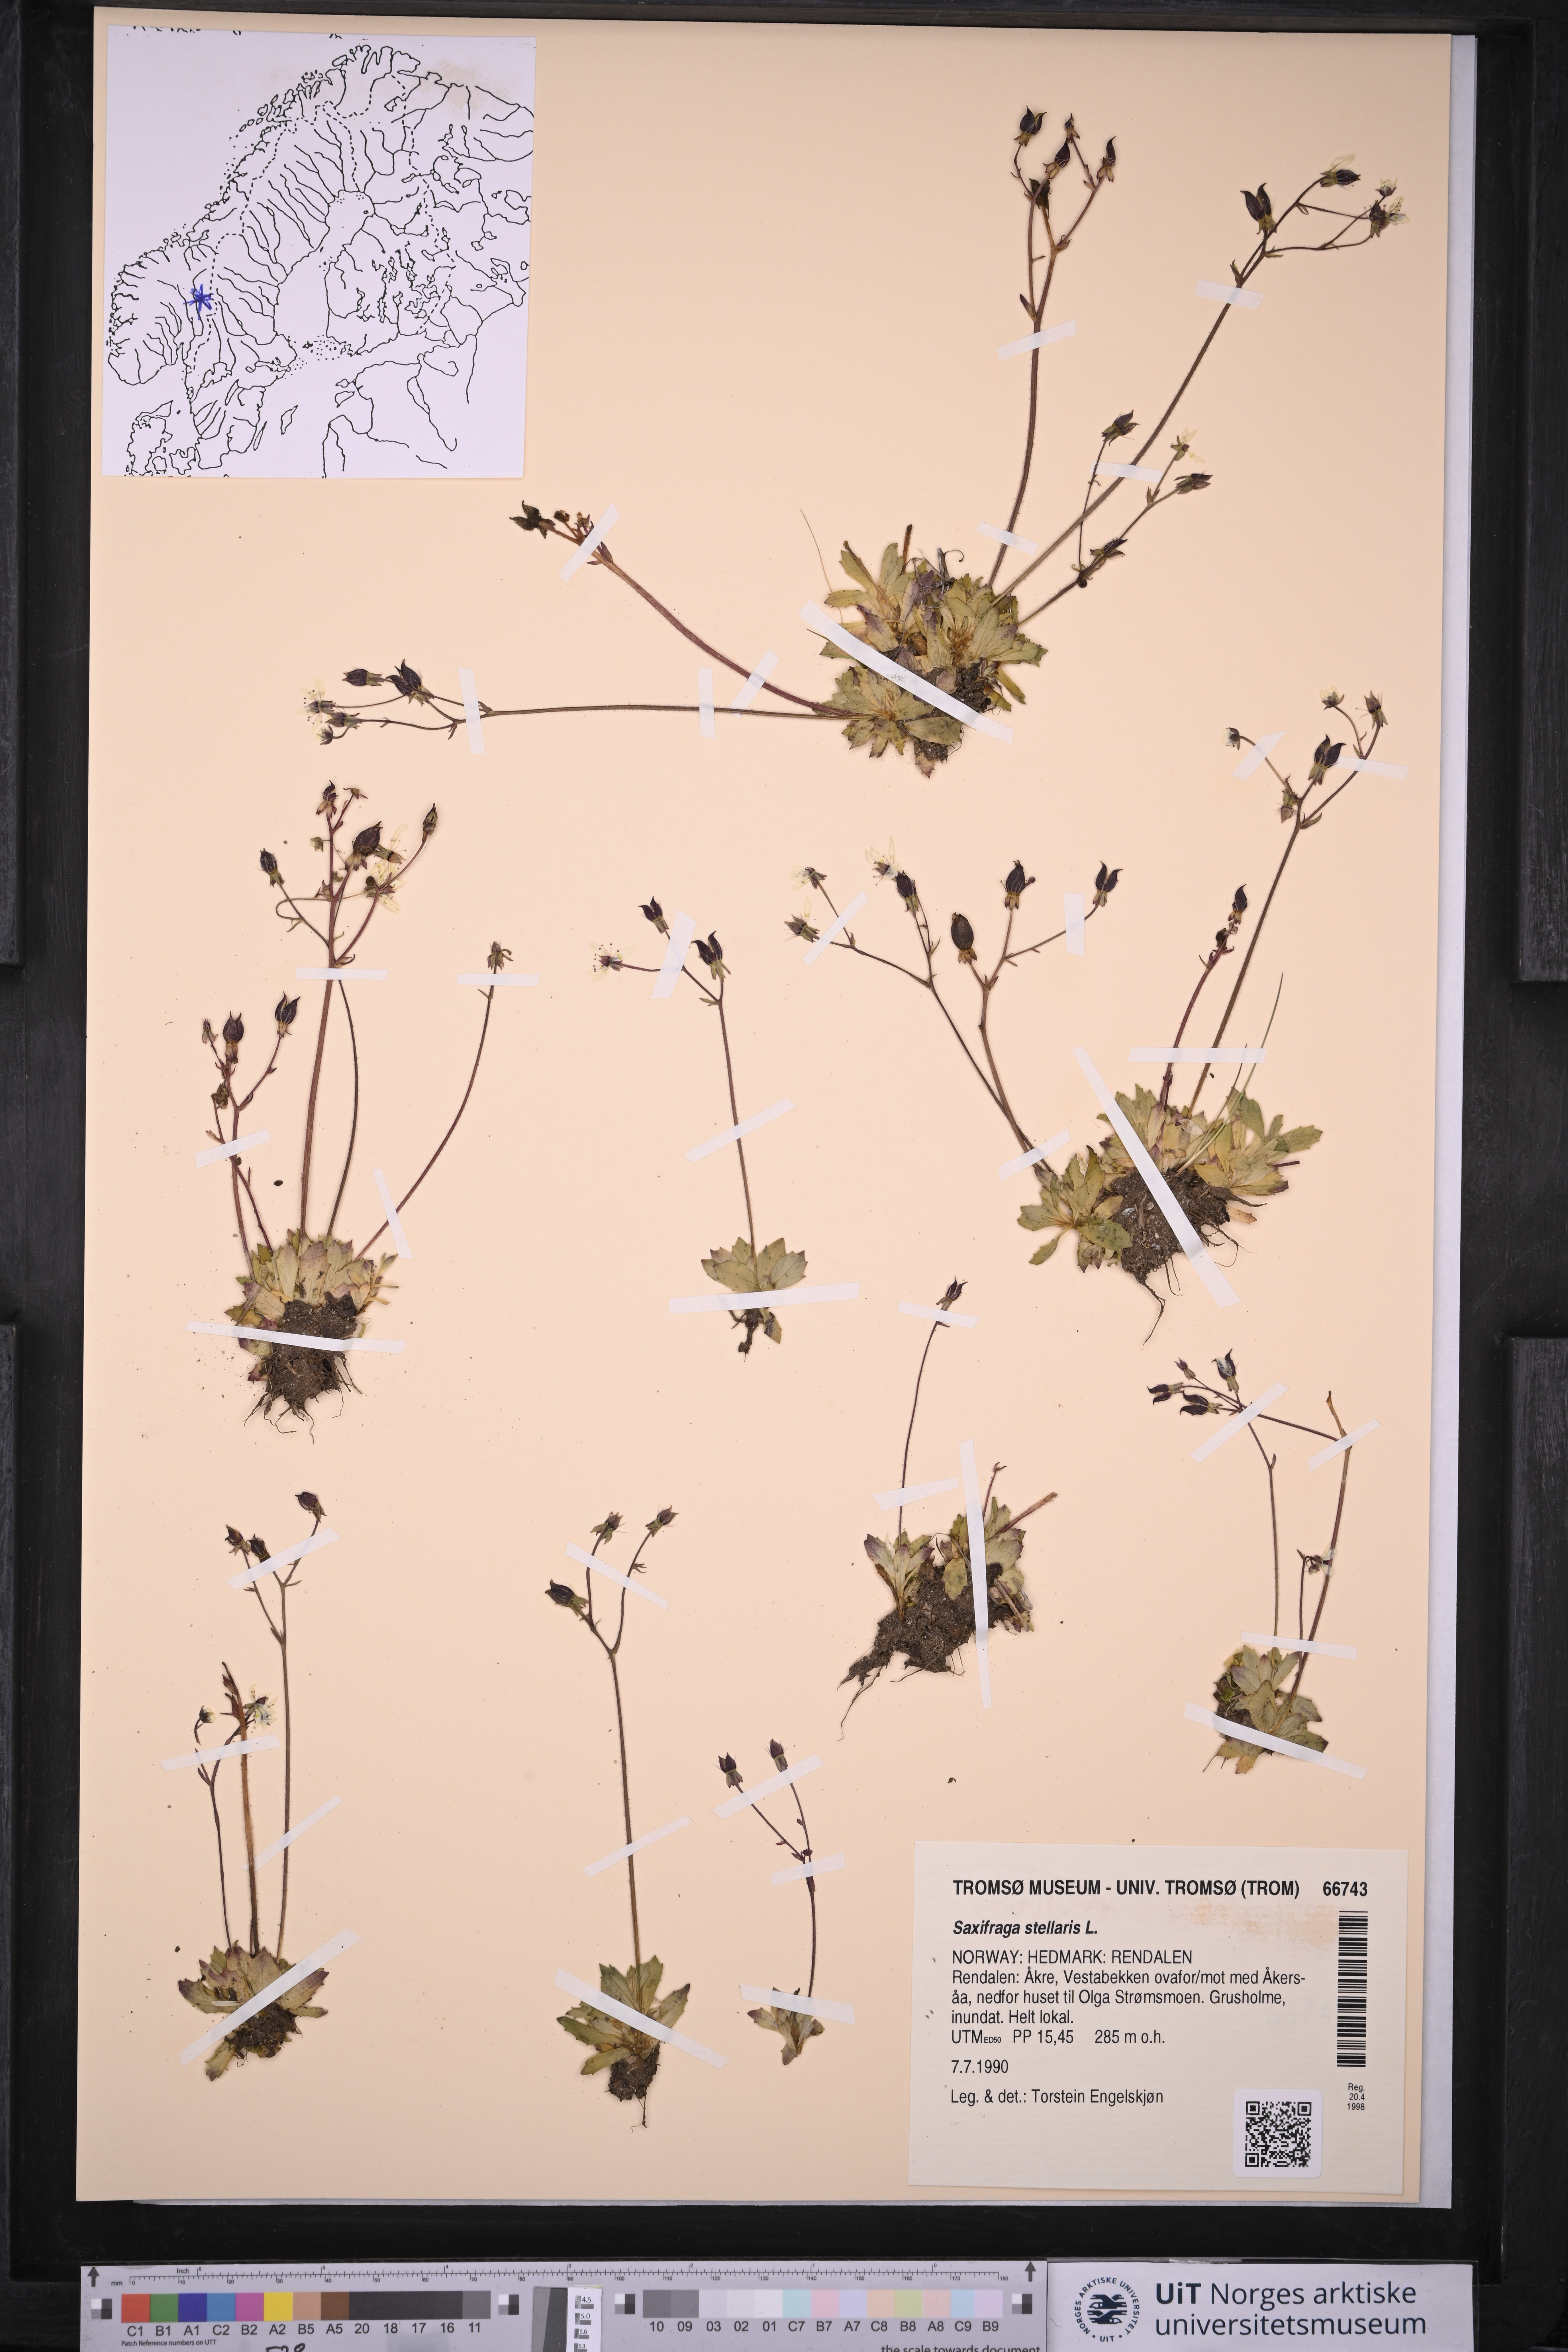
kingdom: Plantae
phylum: Tracheophyta
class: Magnoliopsida
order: Saxifragales
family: Saxifragaceae
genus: Micranthes
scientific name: Micranthes stellaris
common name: Starry saxifrage
